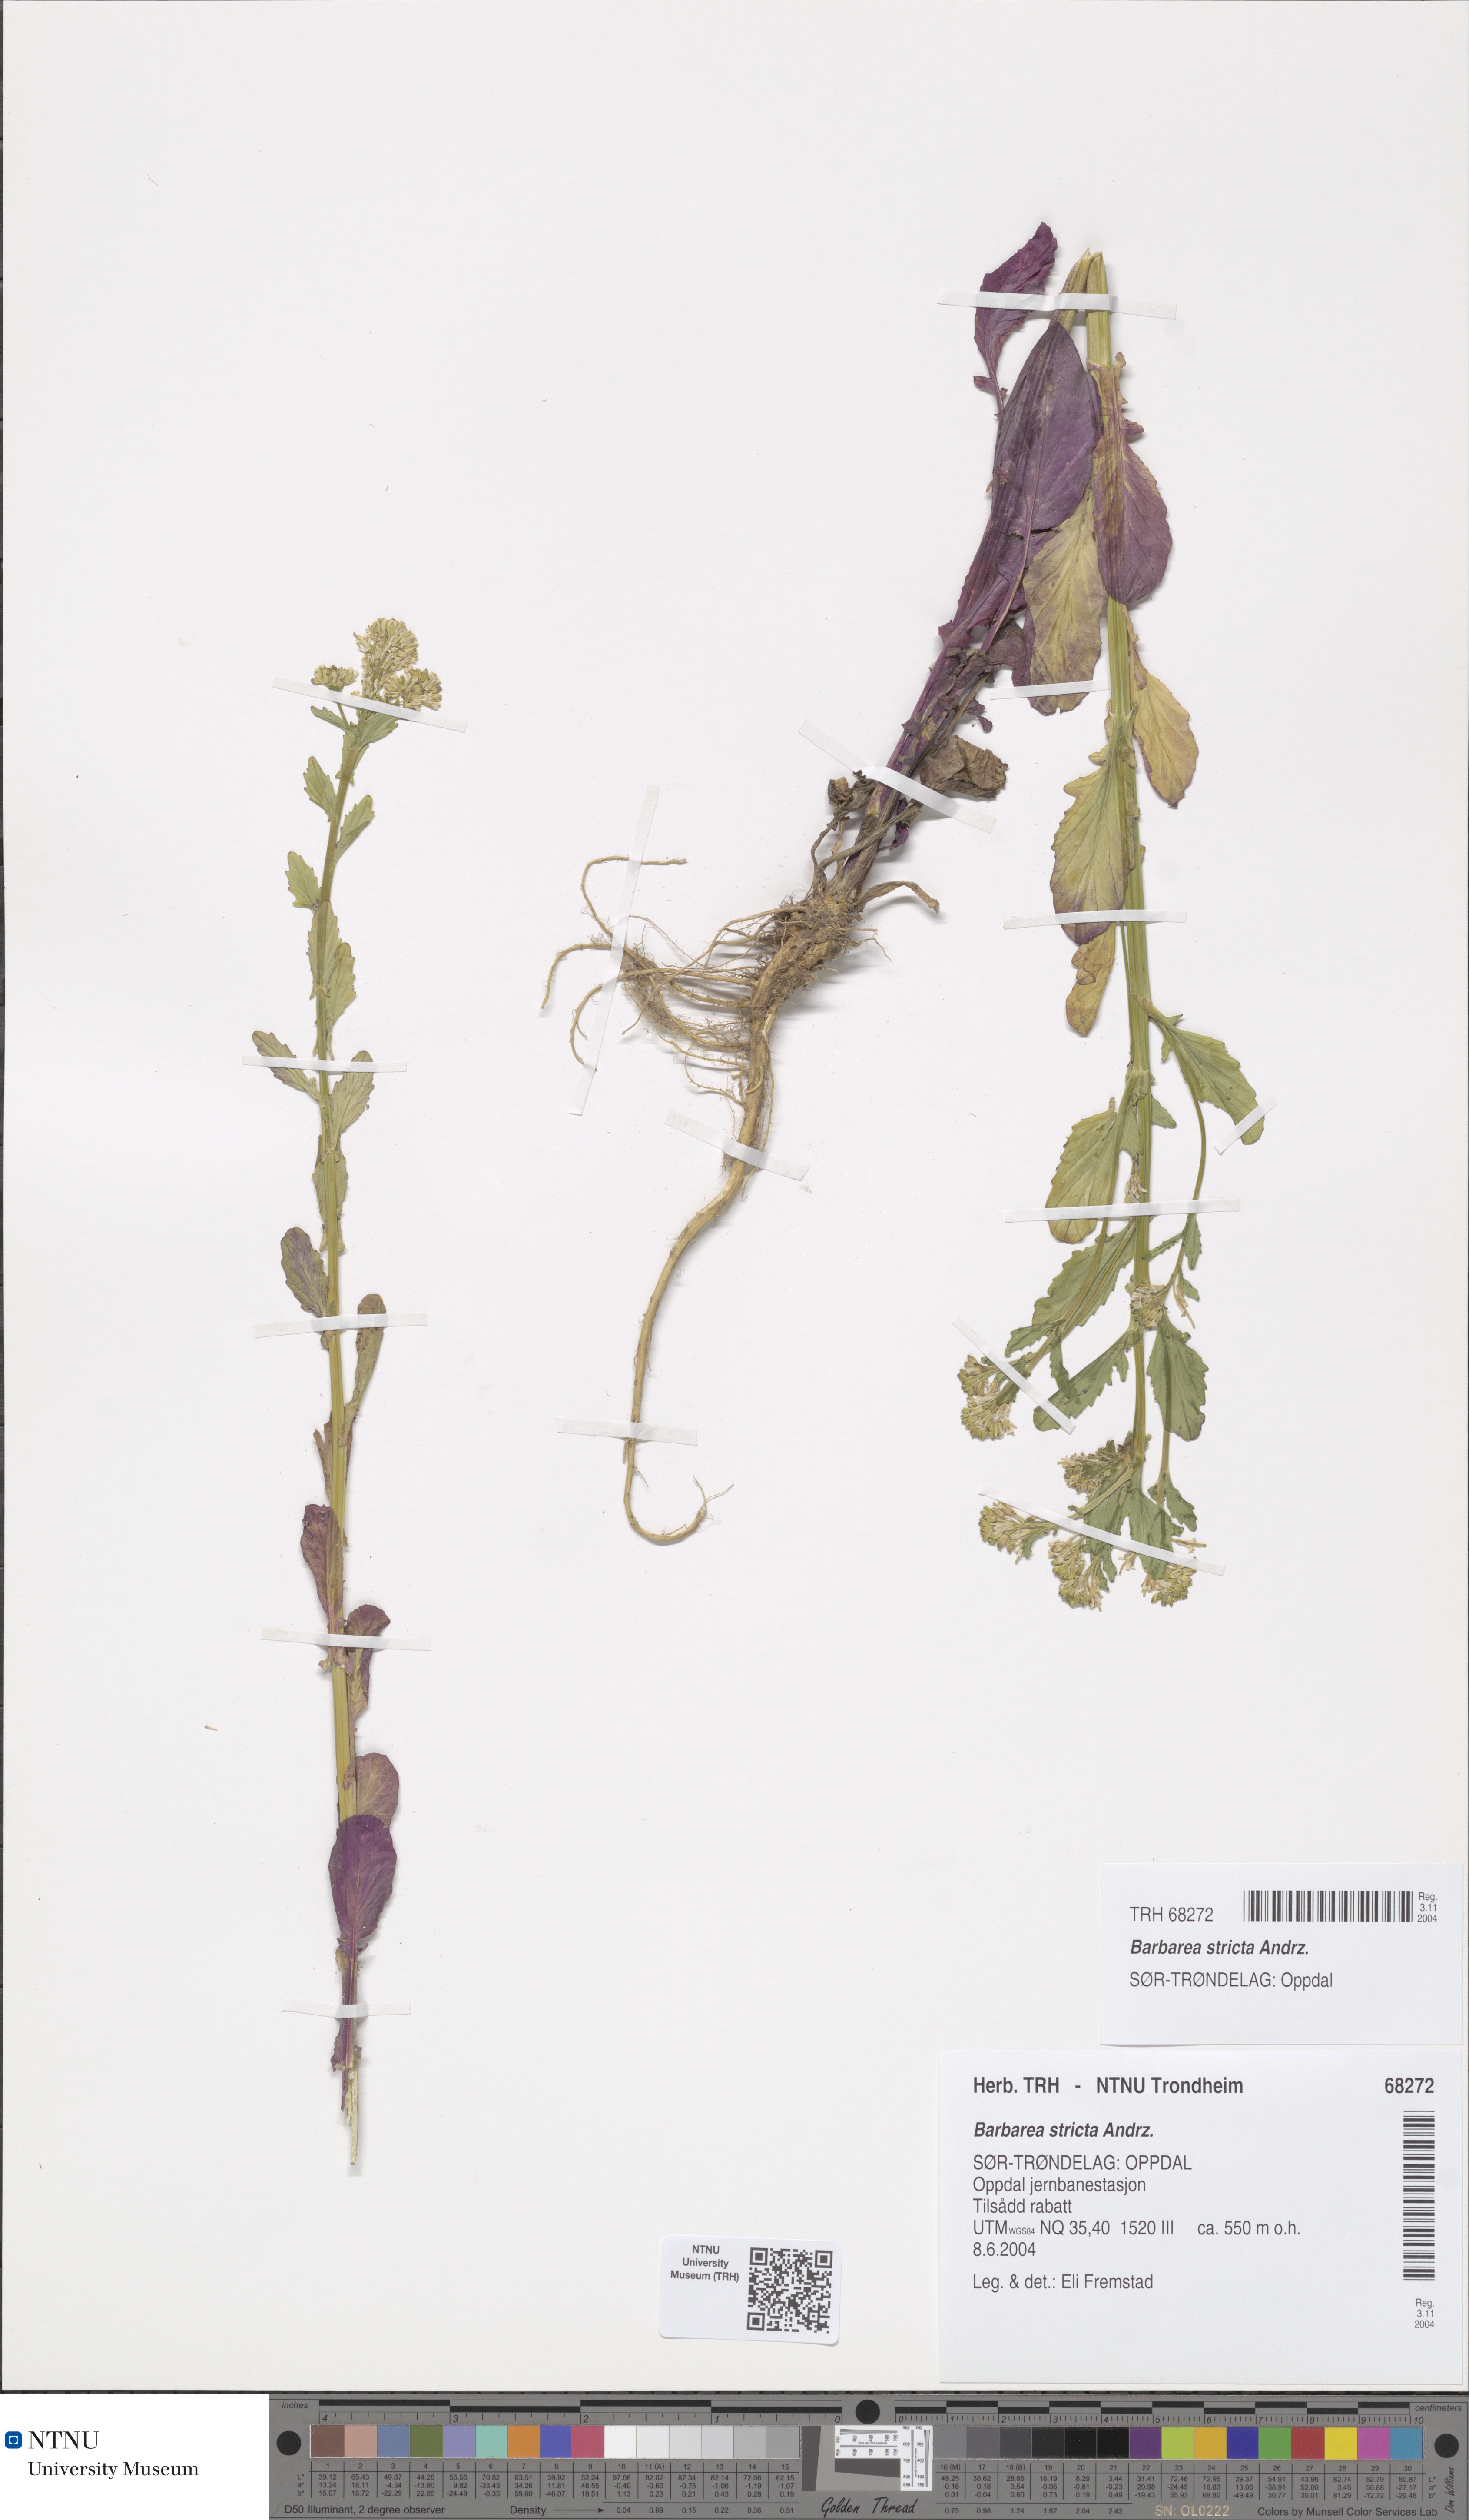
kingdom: Plantae
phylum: Tracheophyta
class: Magnoliopsida
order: Brassicales
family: Brassicaceae
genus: Barbarea
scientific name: Barbarea stricta
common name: Small-flowered winter-cress
